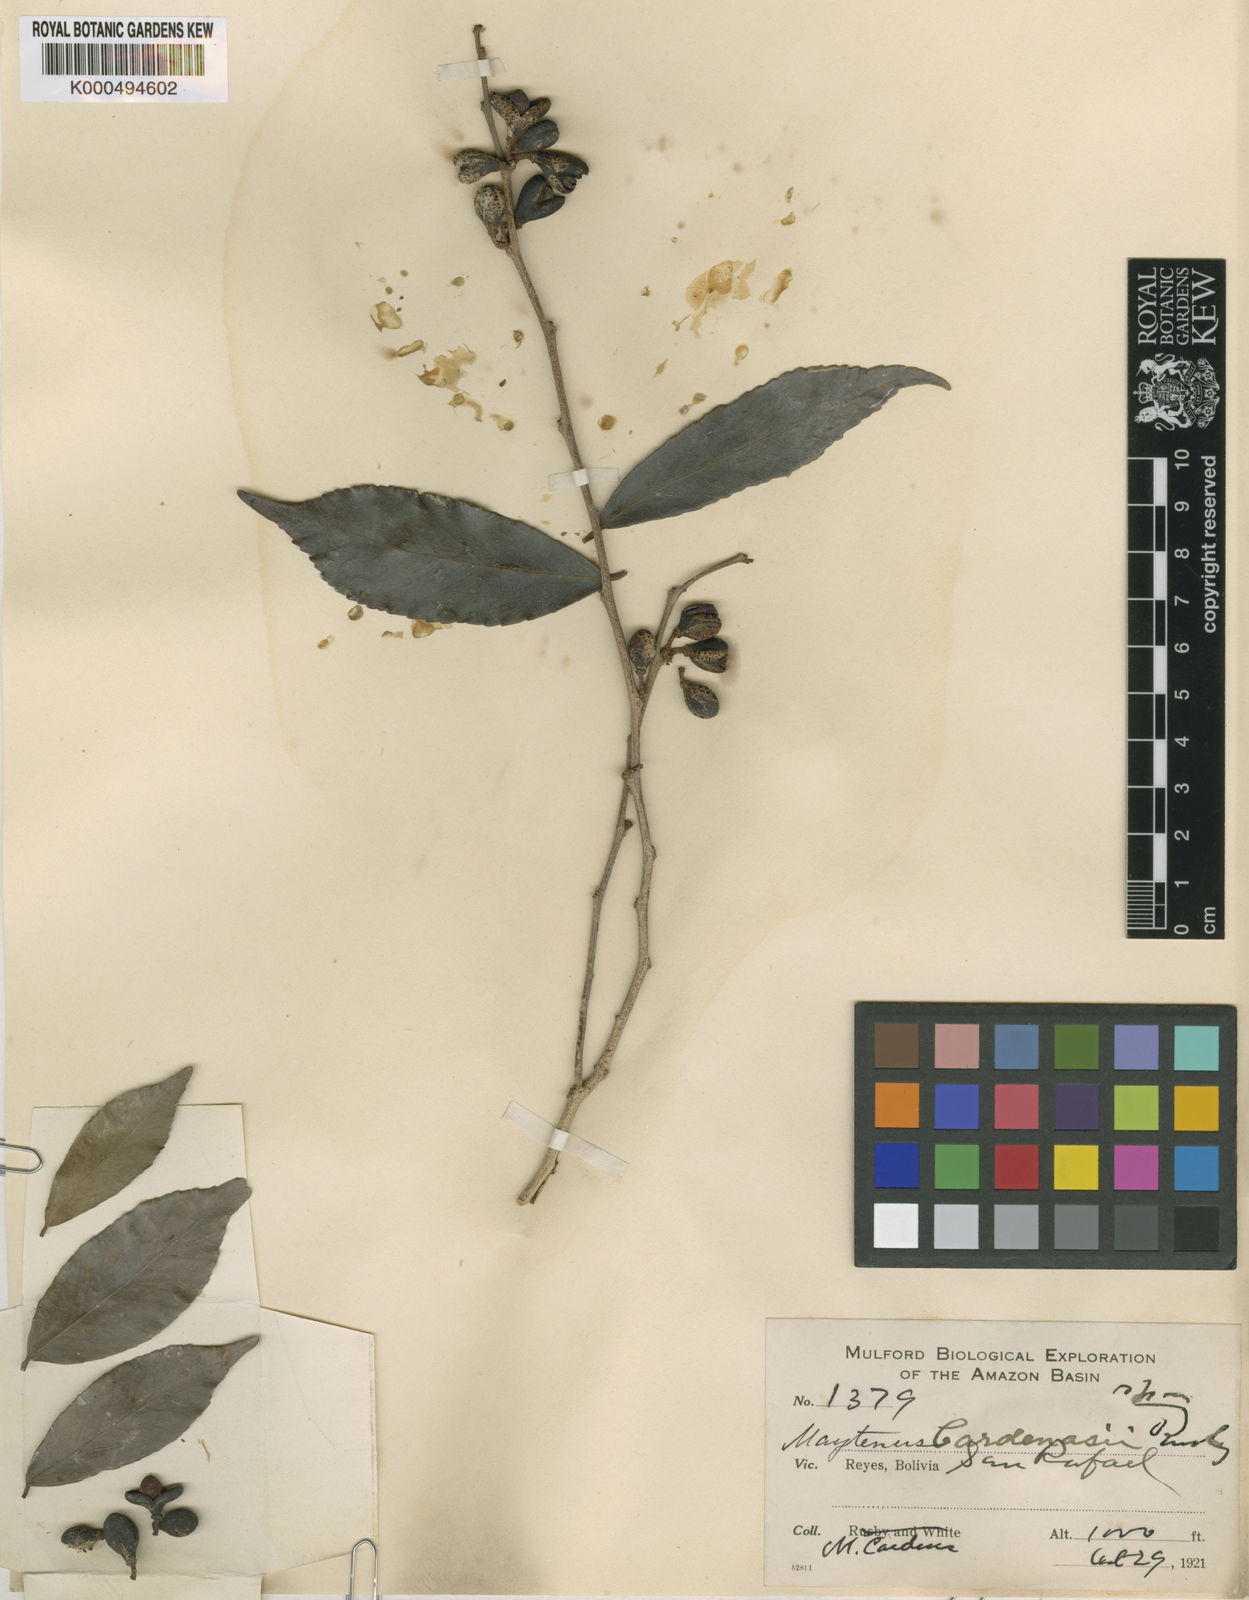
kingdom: Plantae
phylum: Tracheophyta
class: Magnoliopsida
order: Celastrales
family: Celastraceae
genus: Monteverdia
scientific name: Monteverdia flagellata
